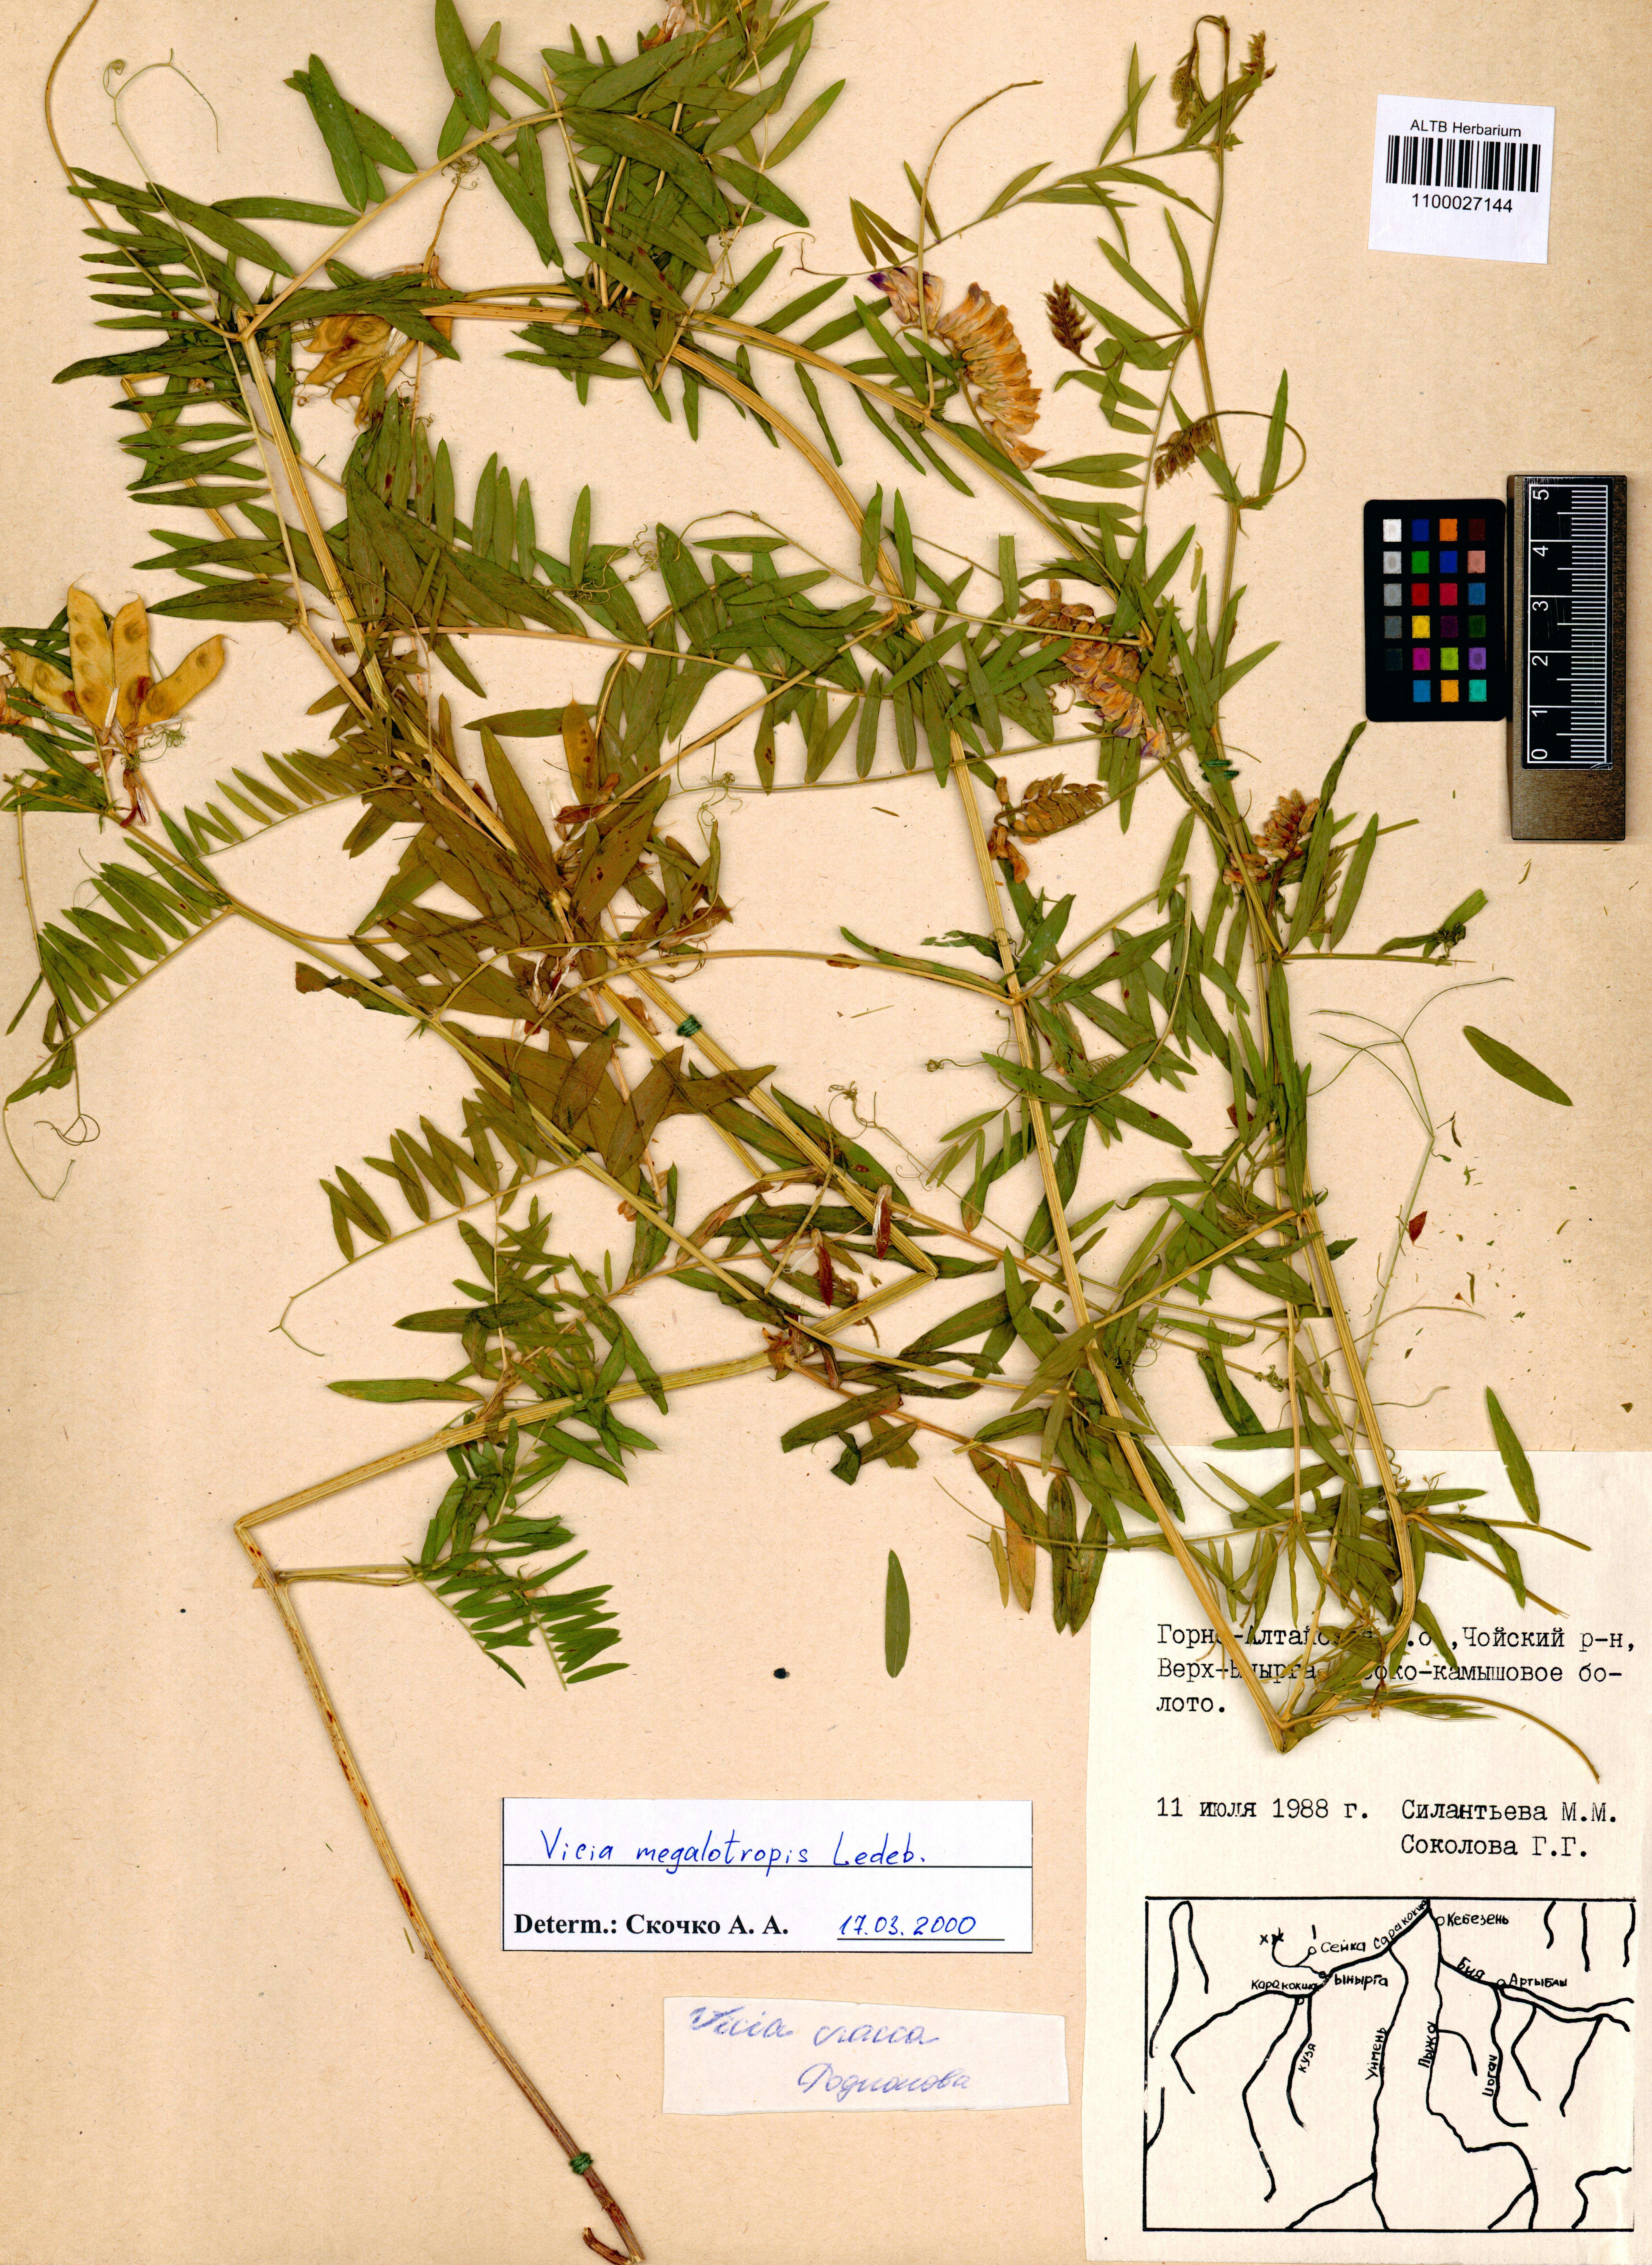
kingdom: Plantae
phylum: Tracheophyta
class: Magnoliopsida
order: Fabales
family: Fabaceae
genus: Vicia
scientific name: Vicia megalotropis
